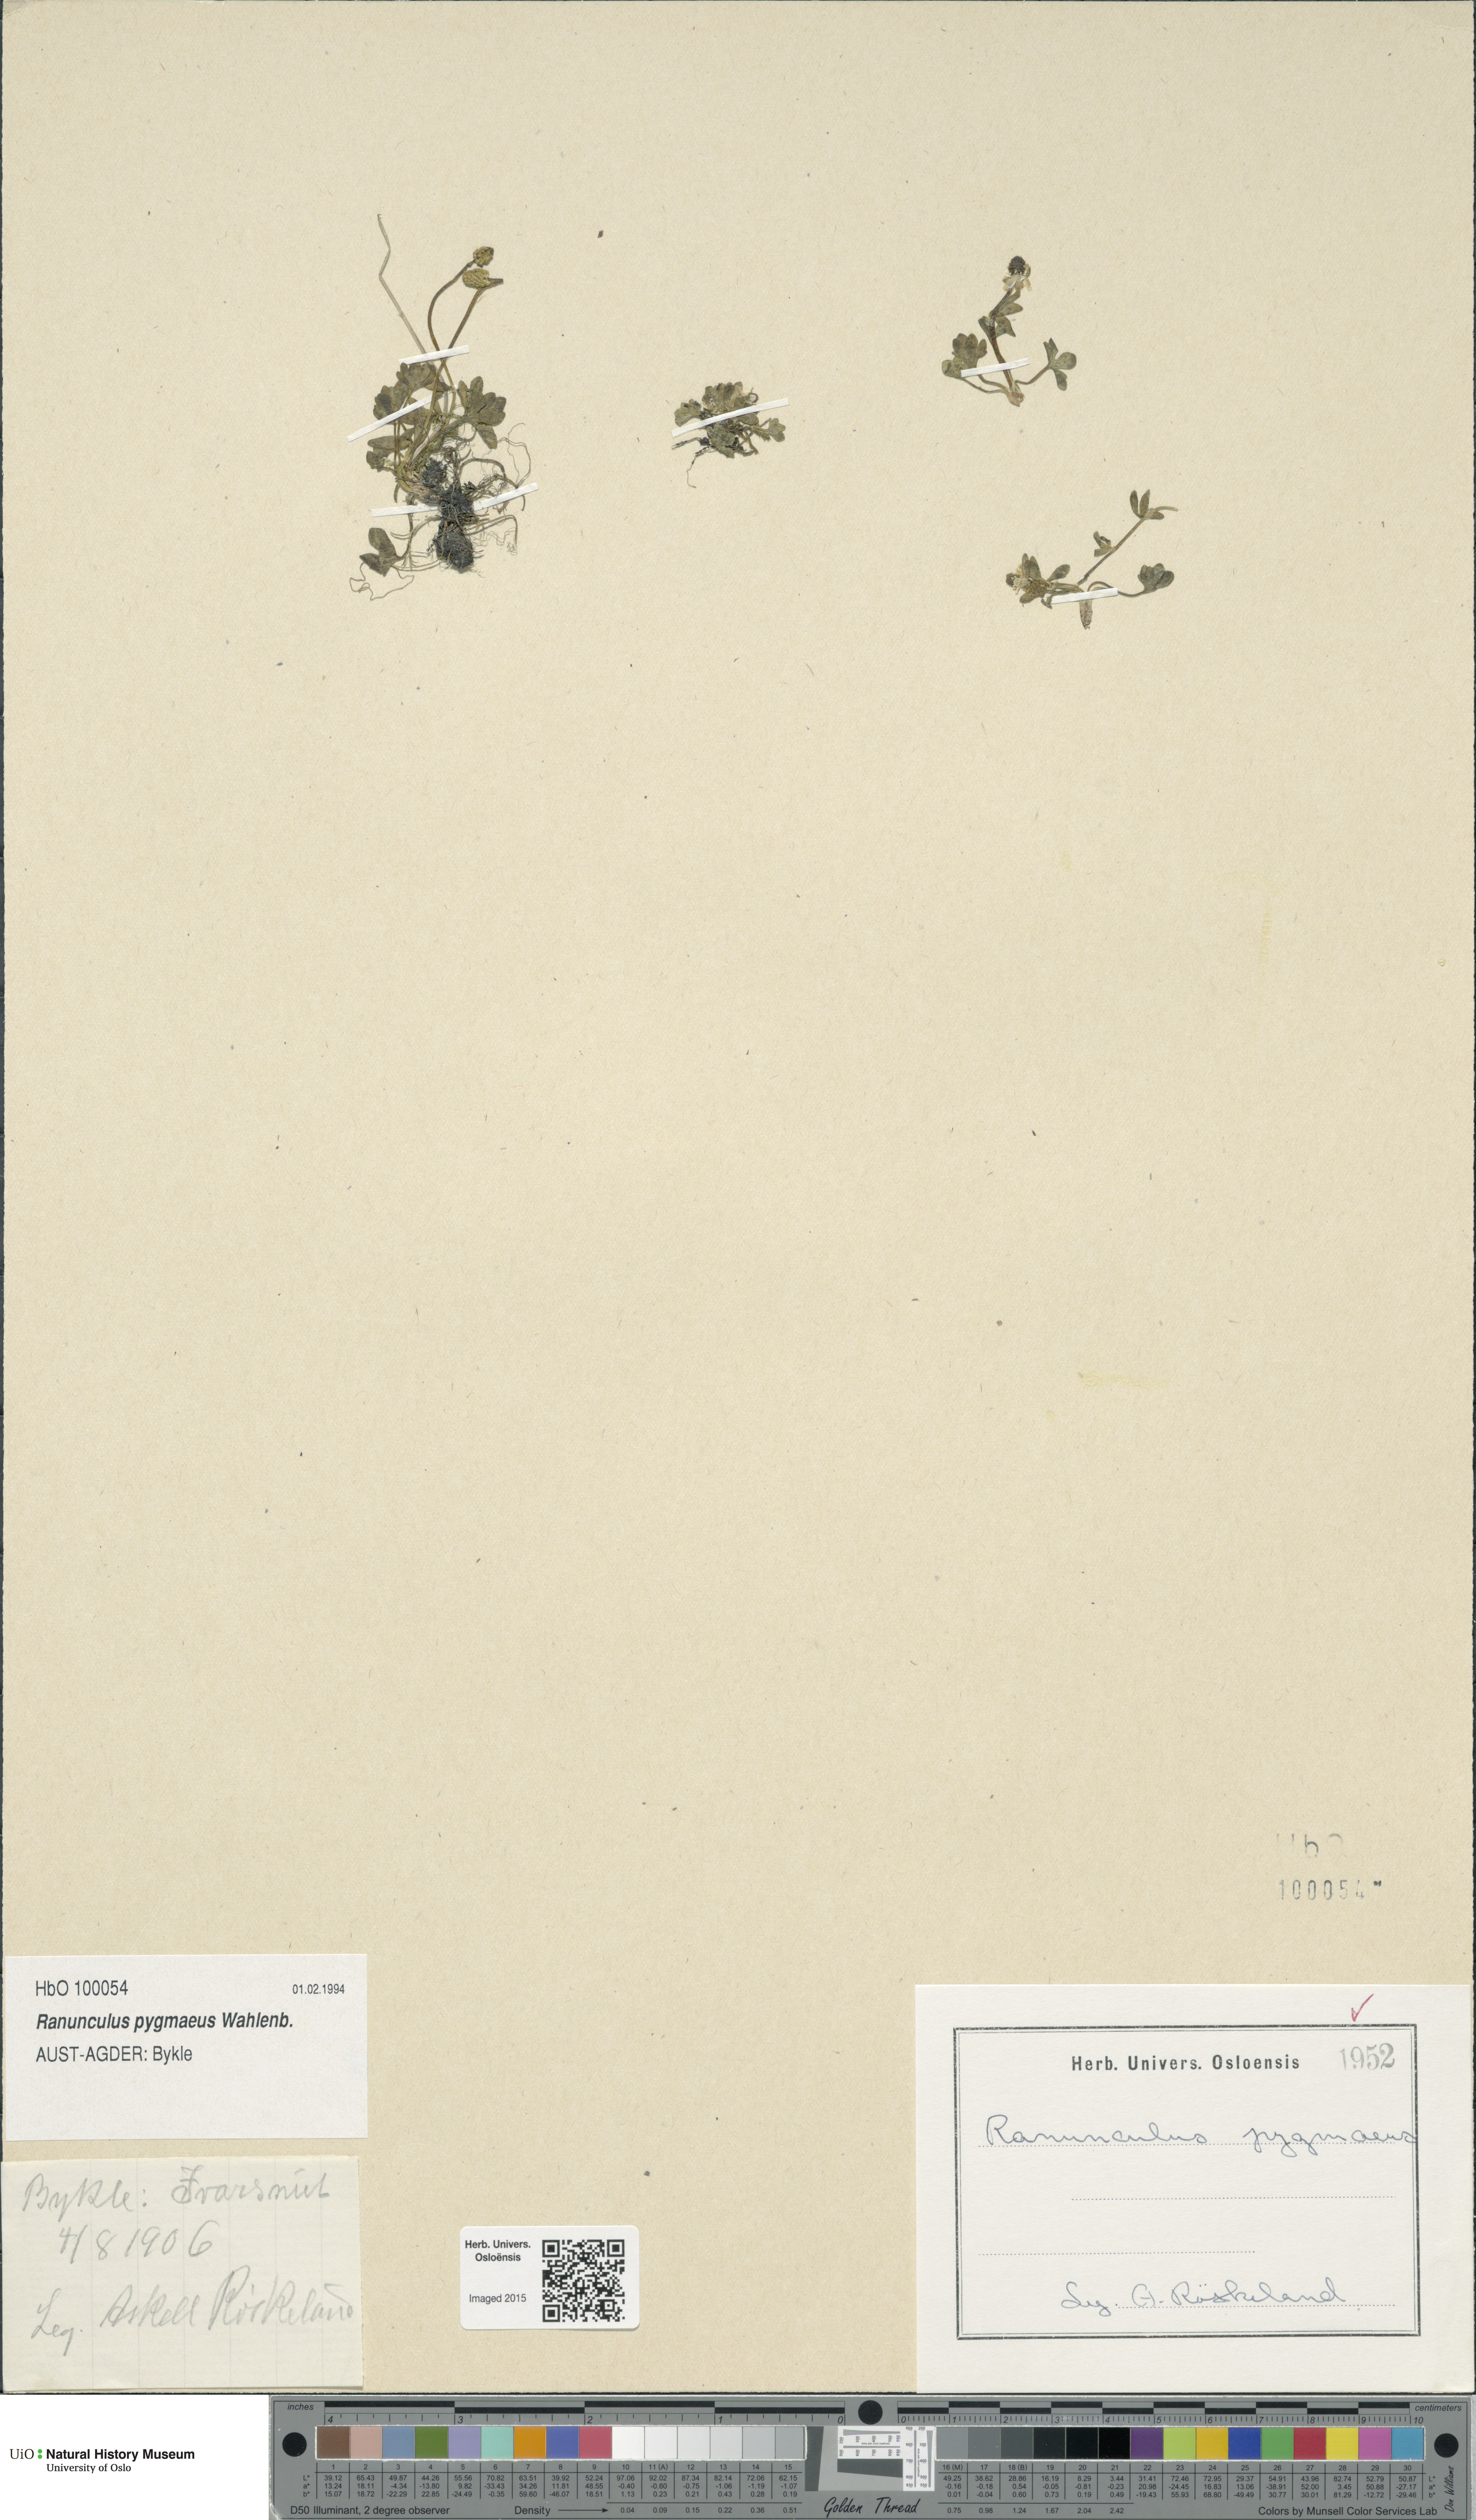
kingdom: Plantae
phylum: Tracheophyta
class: Magnoliopsida
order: Ranunculales
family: Ranunculaceae
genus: Ranunculus
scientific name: Ranunculus pygmaeus
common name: Dwarf buttercup
